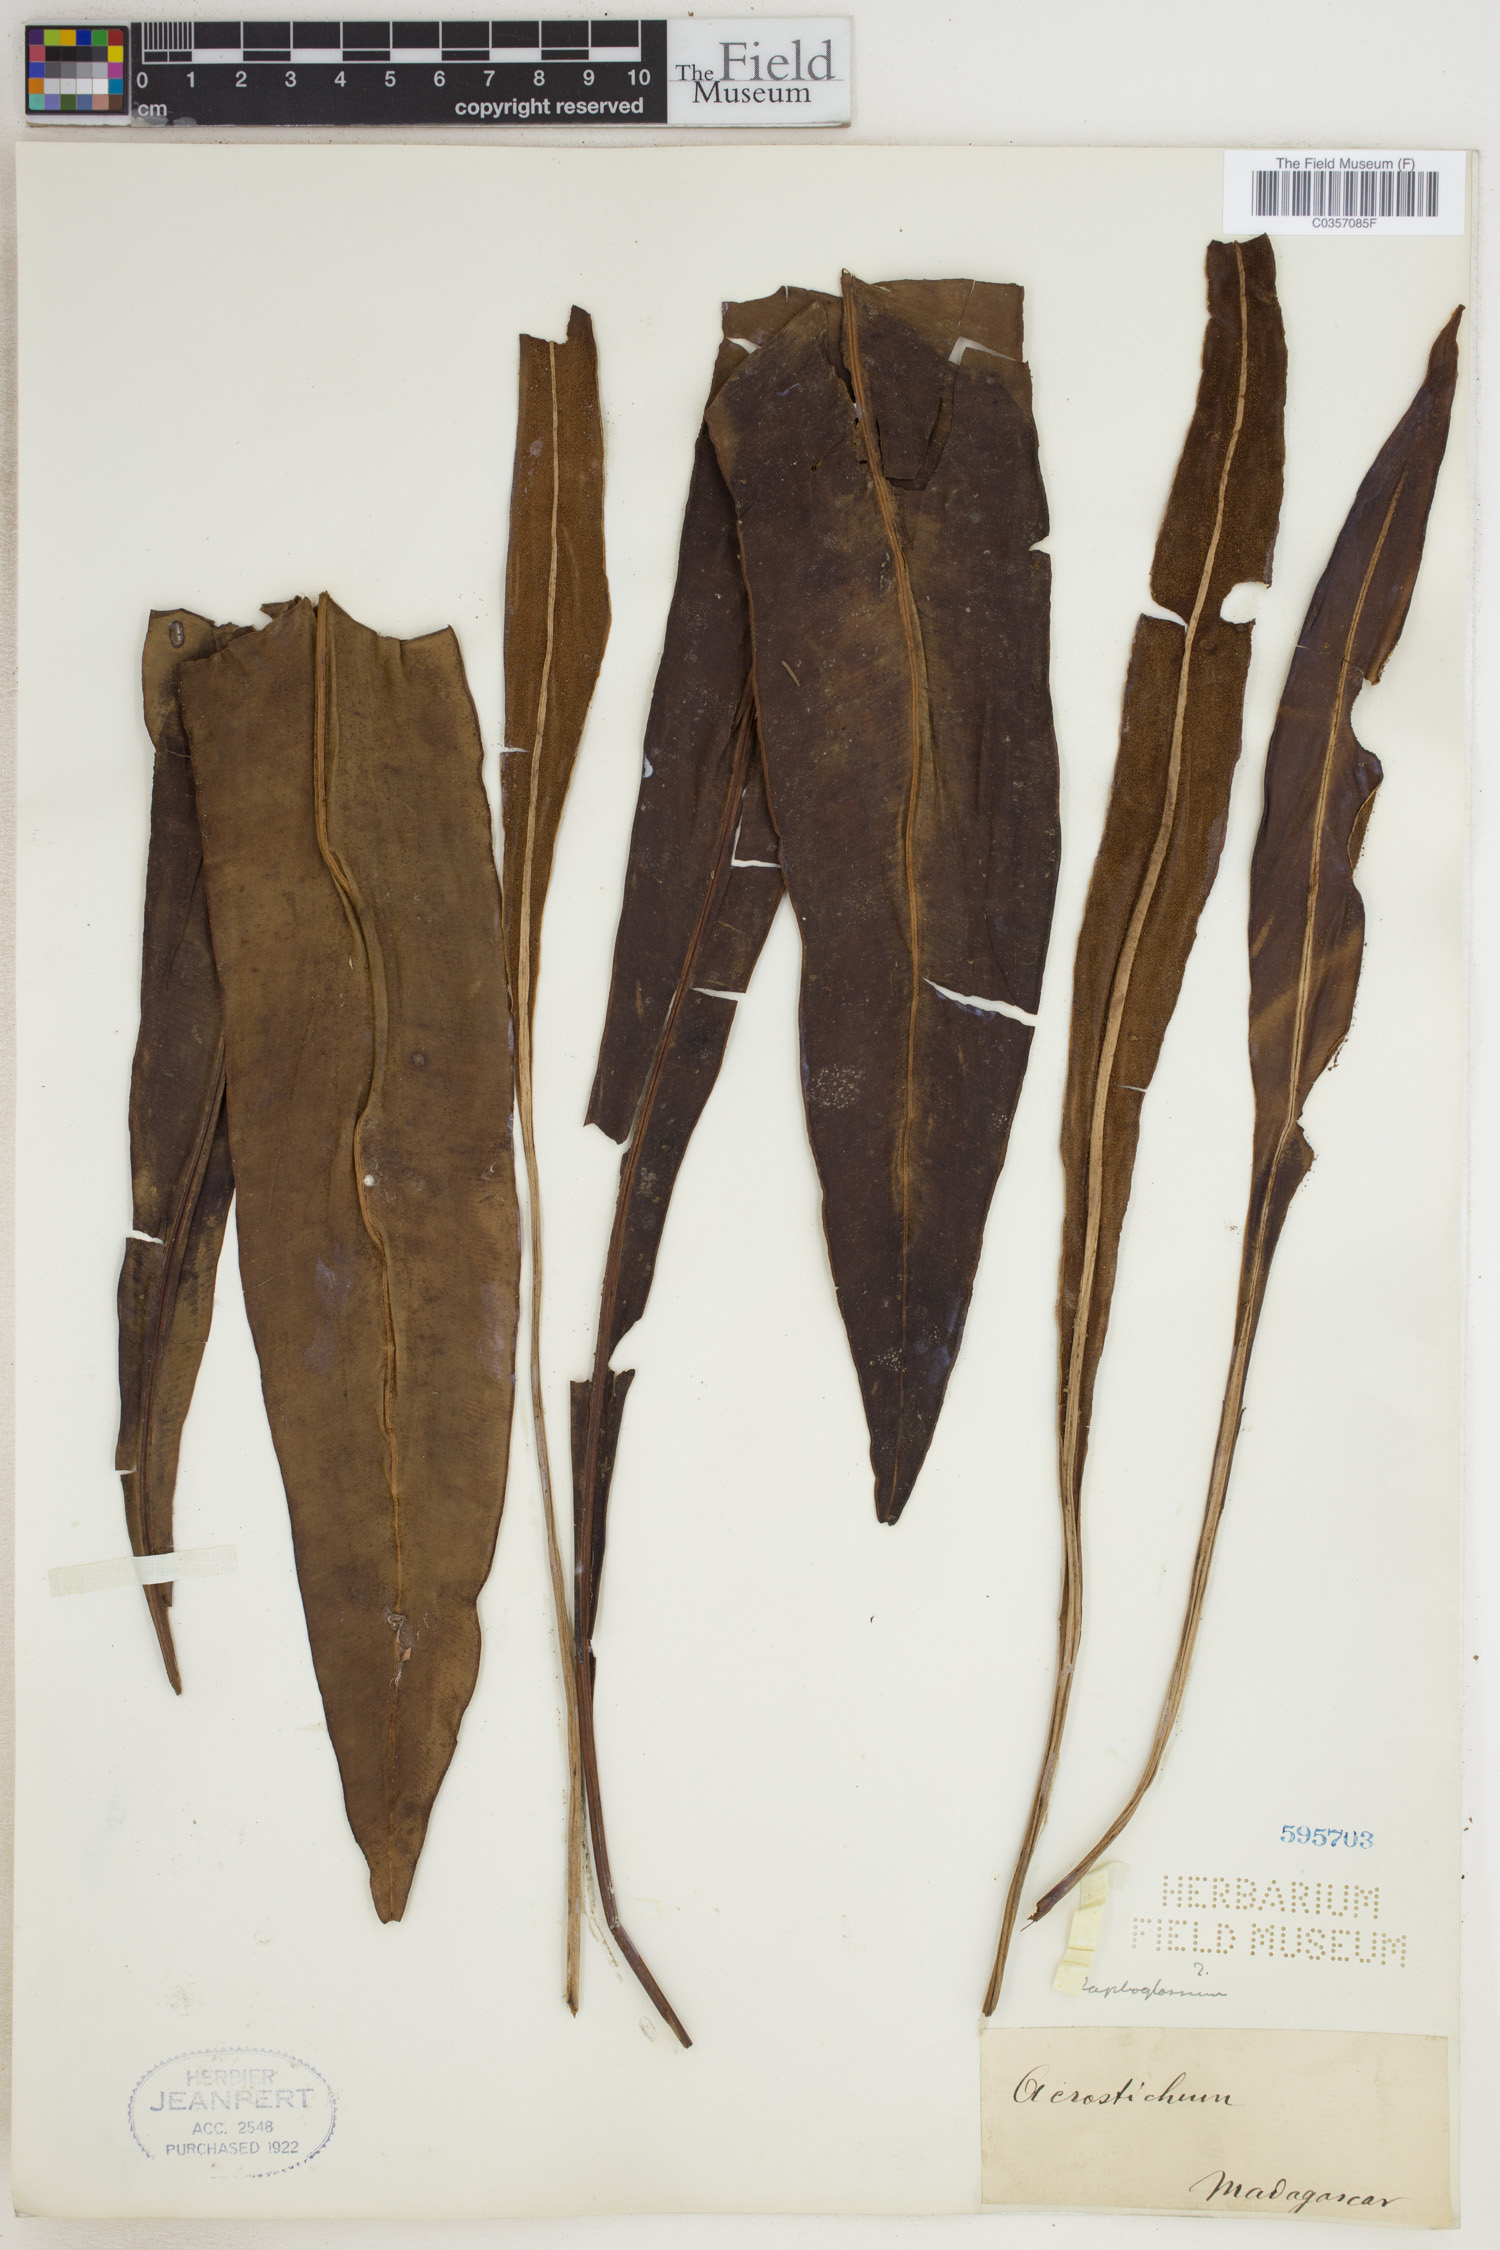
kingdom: Plantae
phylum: Tracheophyta
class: Polypodiopsida
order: Polypodiales
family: Pteridaceae
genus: Acrostichum
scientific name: Acrostichum
